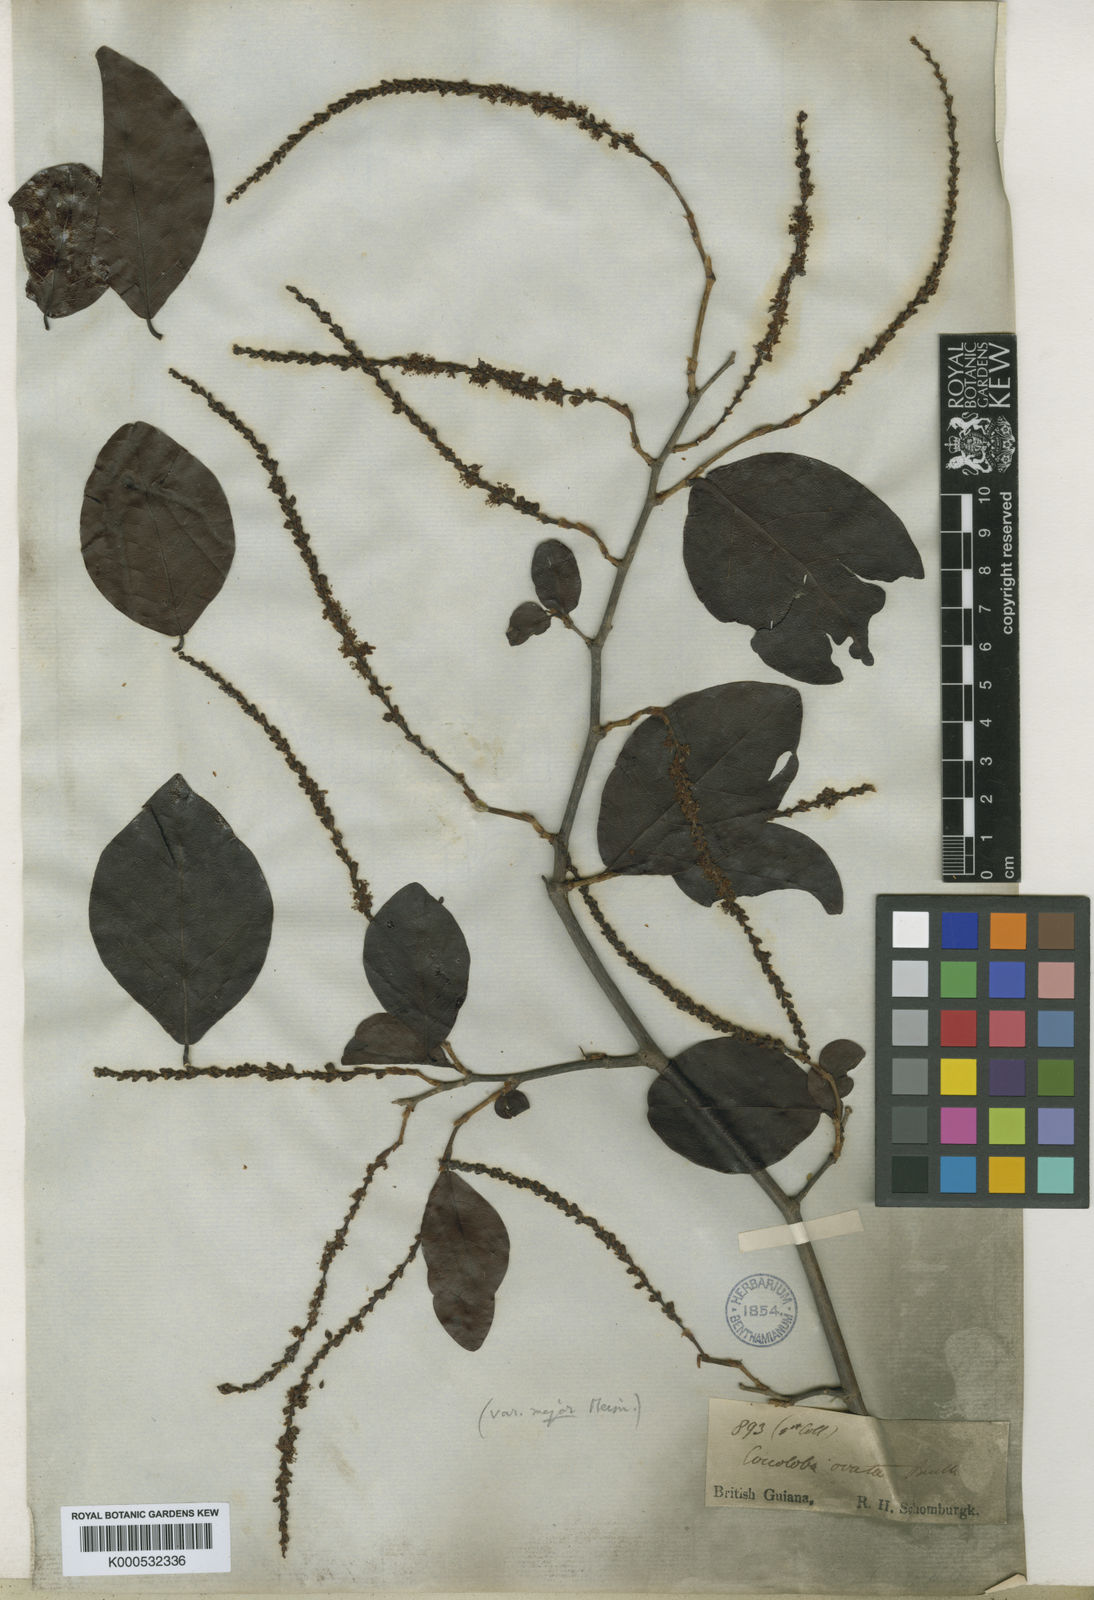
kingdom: Plantae
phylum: Tracheophyta
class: Magnoliopsida
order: Caryophyllales
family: Polygonaceae
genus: Coccoloba
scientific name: Coccoloba ovata
